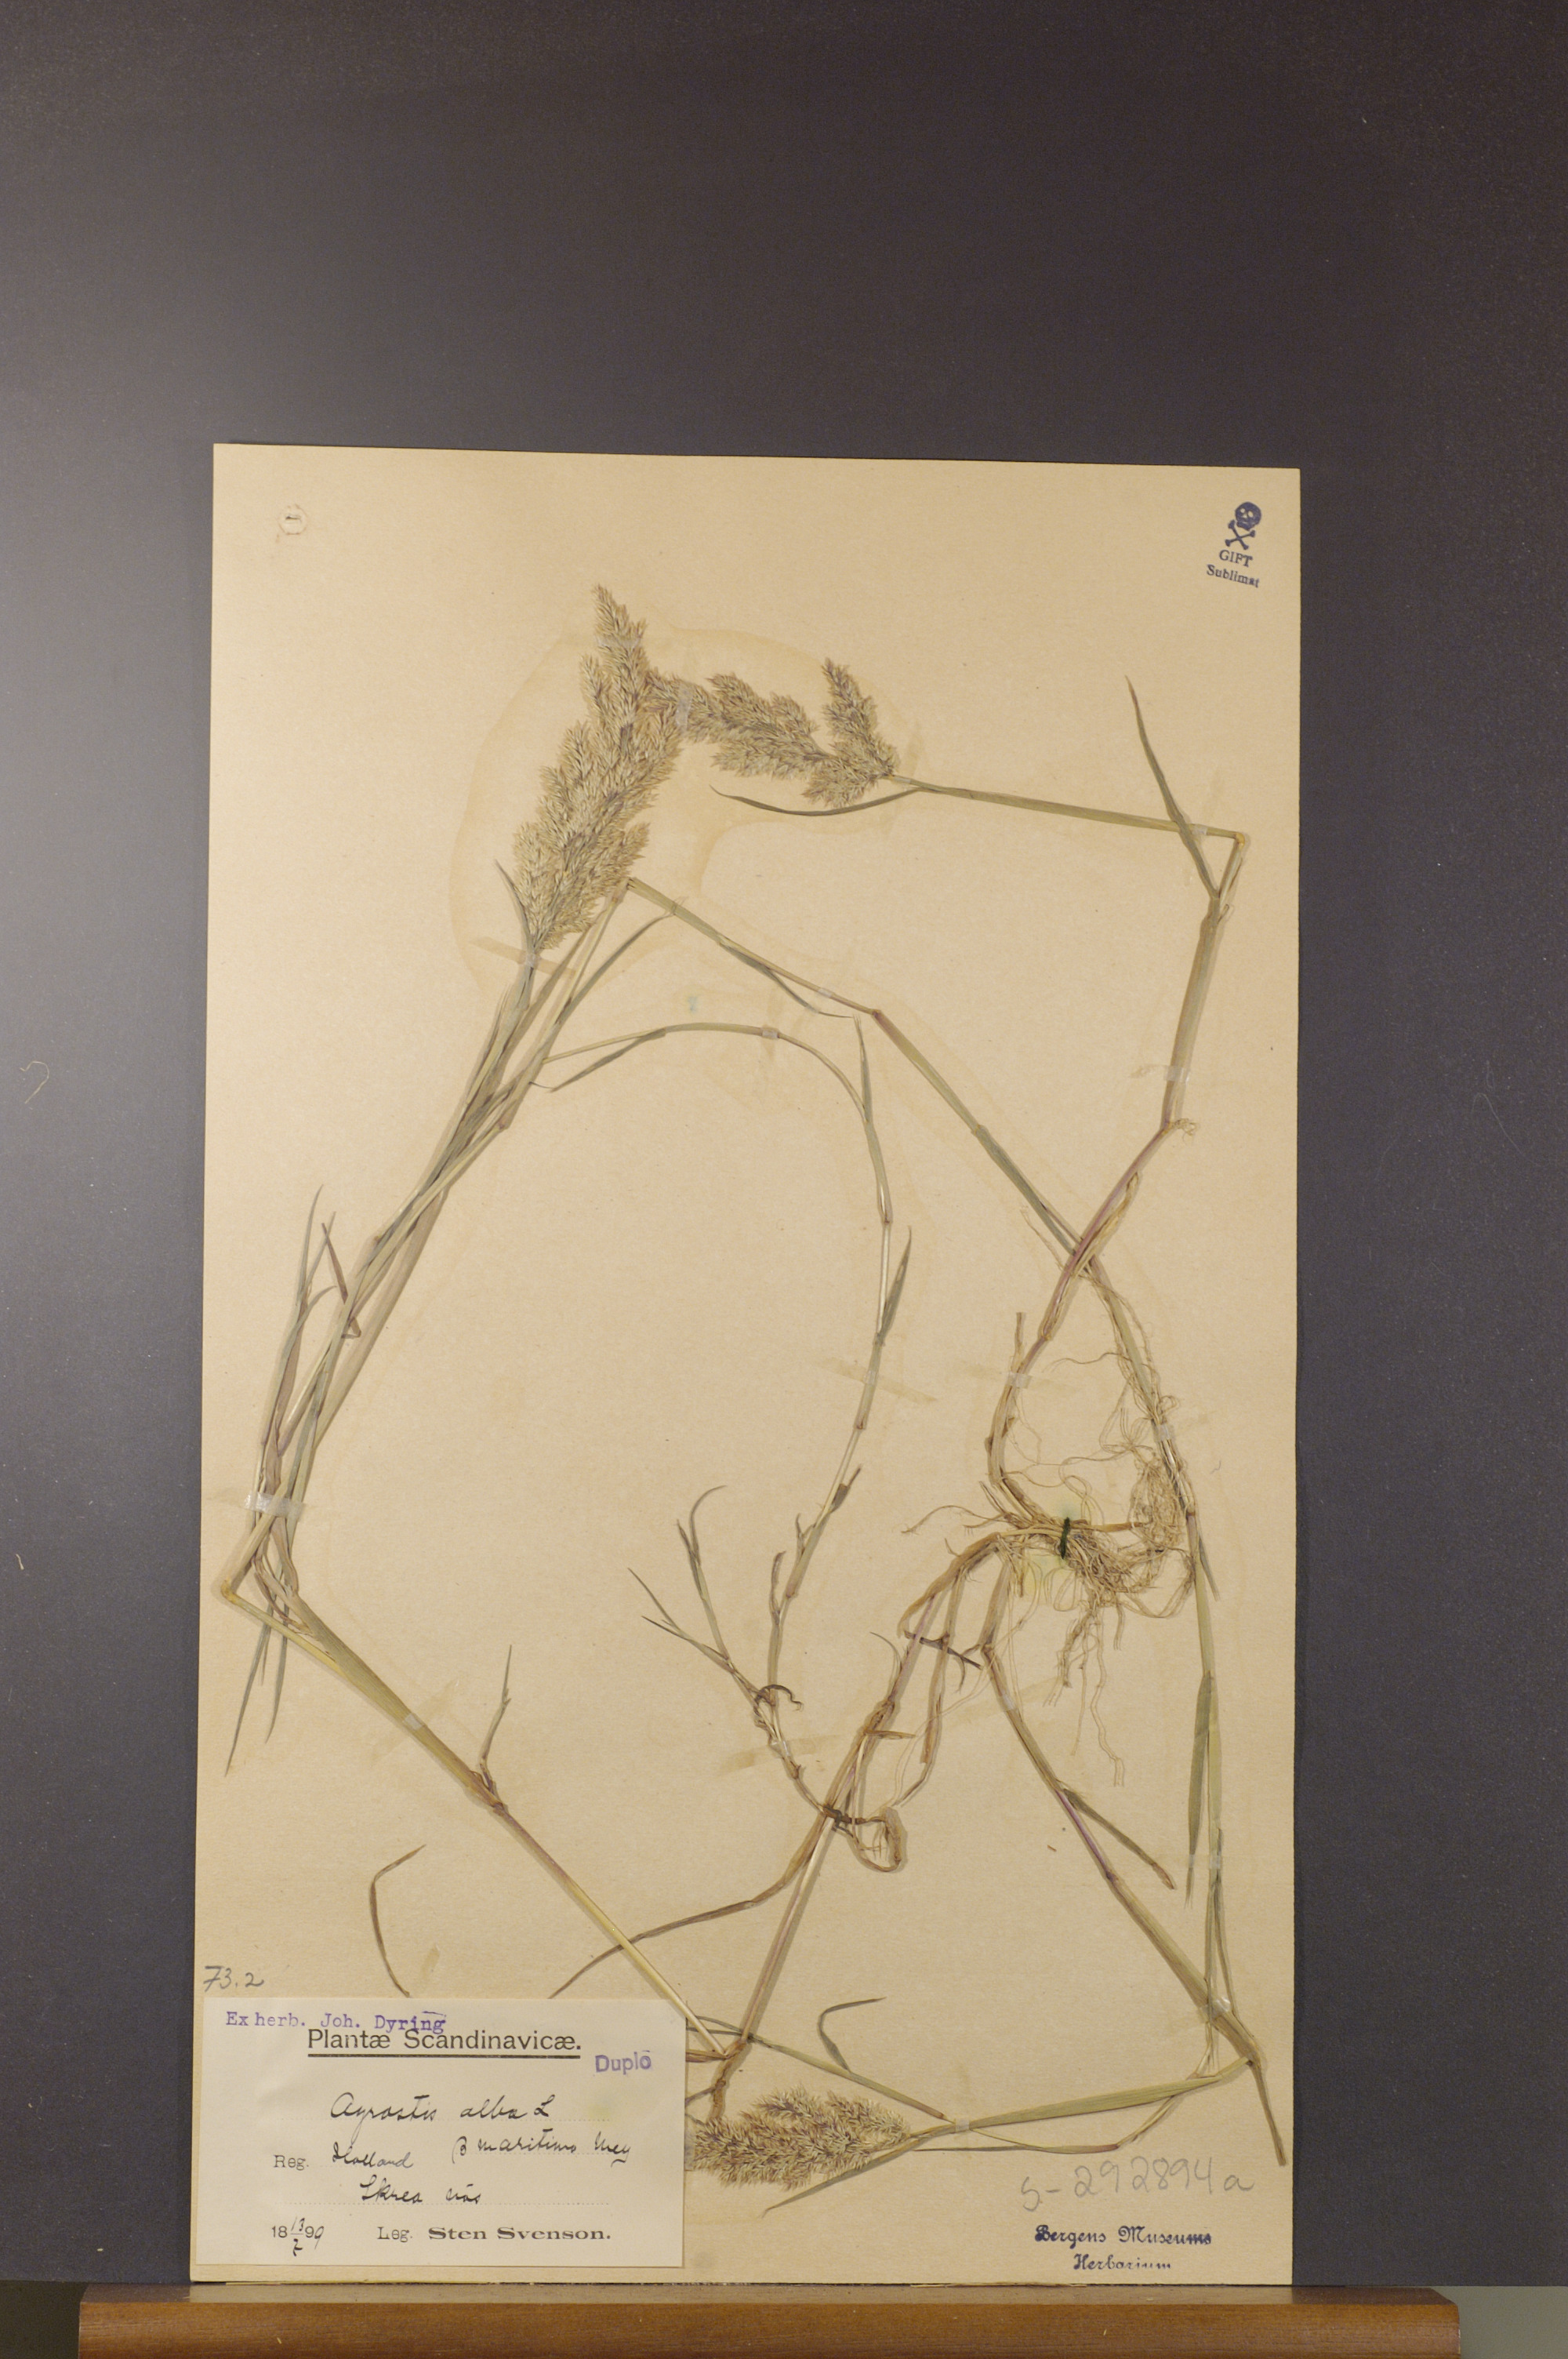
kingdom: Plantae
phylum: Tracheophyta
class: Liliopsida
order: Poales
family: Poaceae
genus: Agrostis
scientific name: Agrostis stolonifera
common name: Creeping bentgrass
